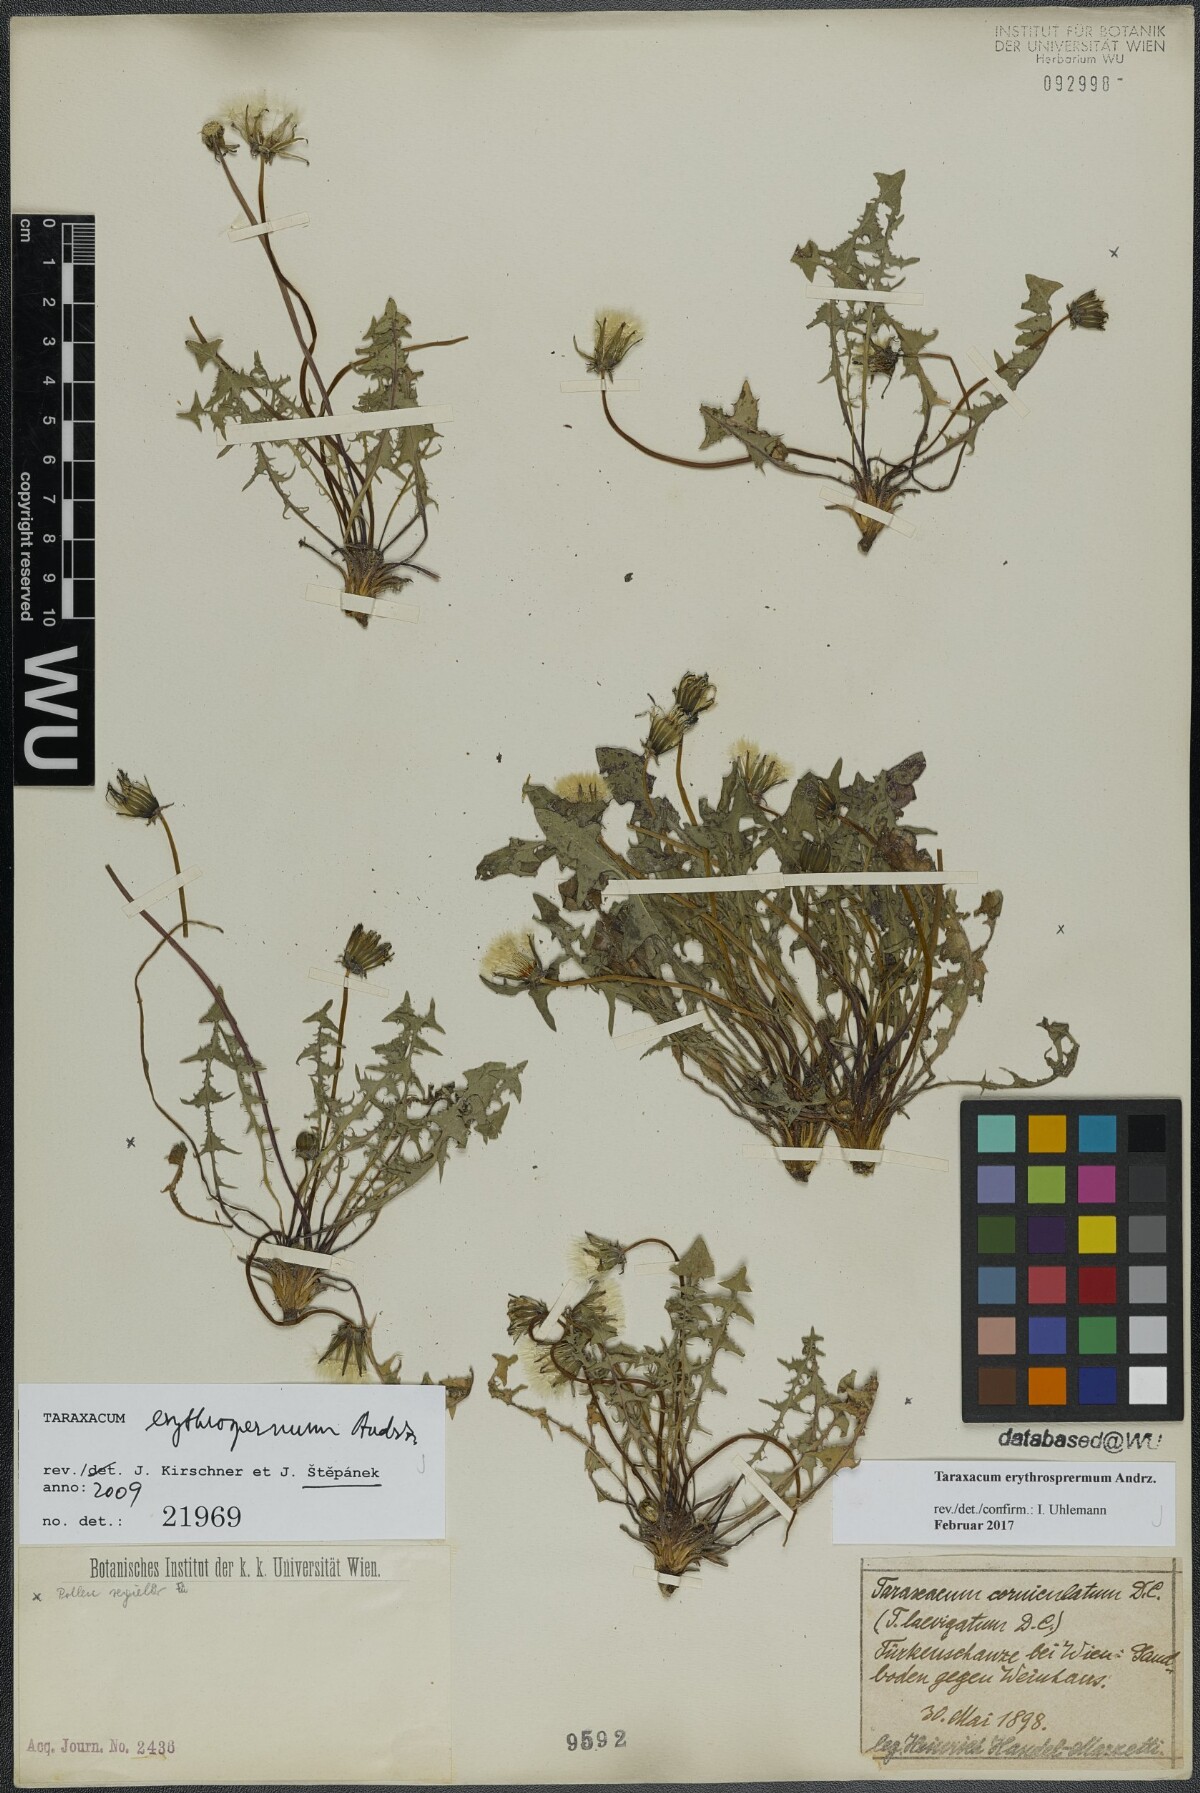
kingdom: Plantae
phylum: Tracheophyta
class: Magnoliopsida
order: Asterales
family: Asteraceae
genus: Taraxacum
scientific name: Taraxacum erythrospermum
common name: Rock dandelion
